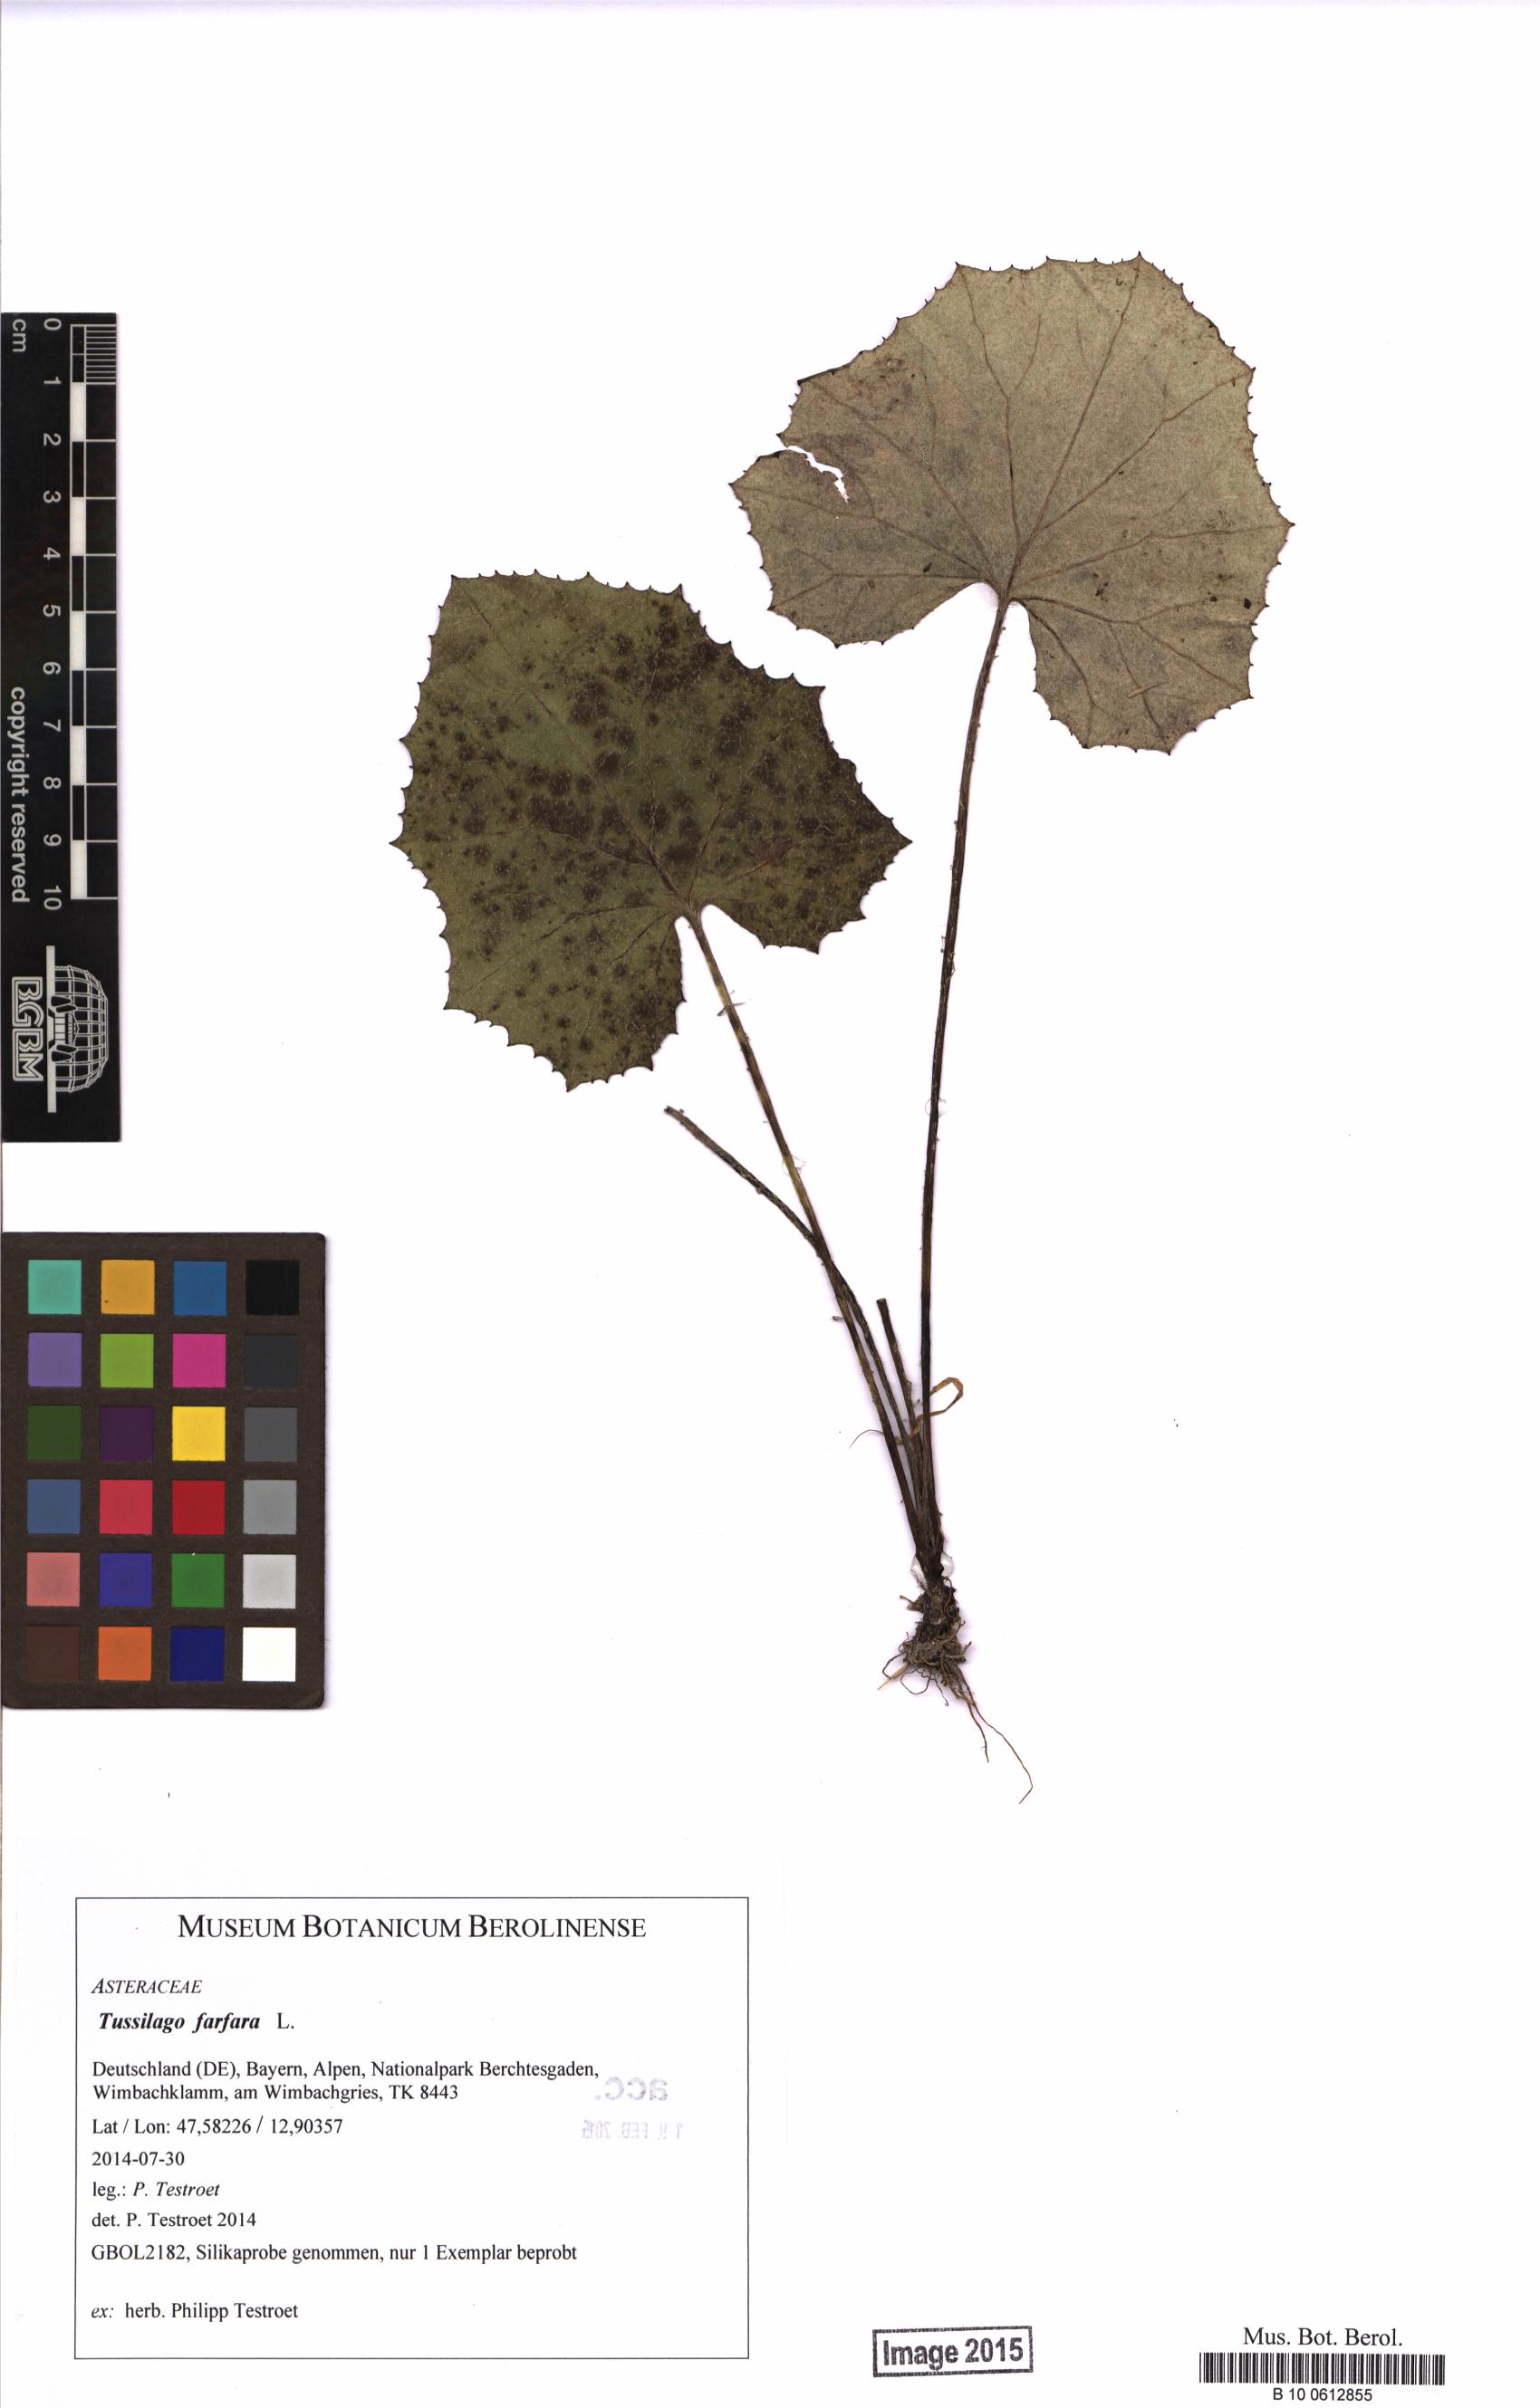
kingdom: Plantae
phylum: Tracheophyta
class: Magnoliopsida
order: Asterales
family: Asteraceae
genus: Tussilago
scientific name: Tussilago farfara
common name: Coltsfoot
